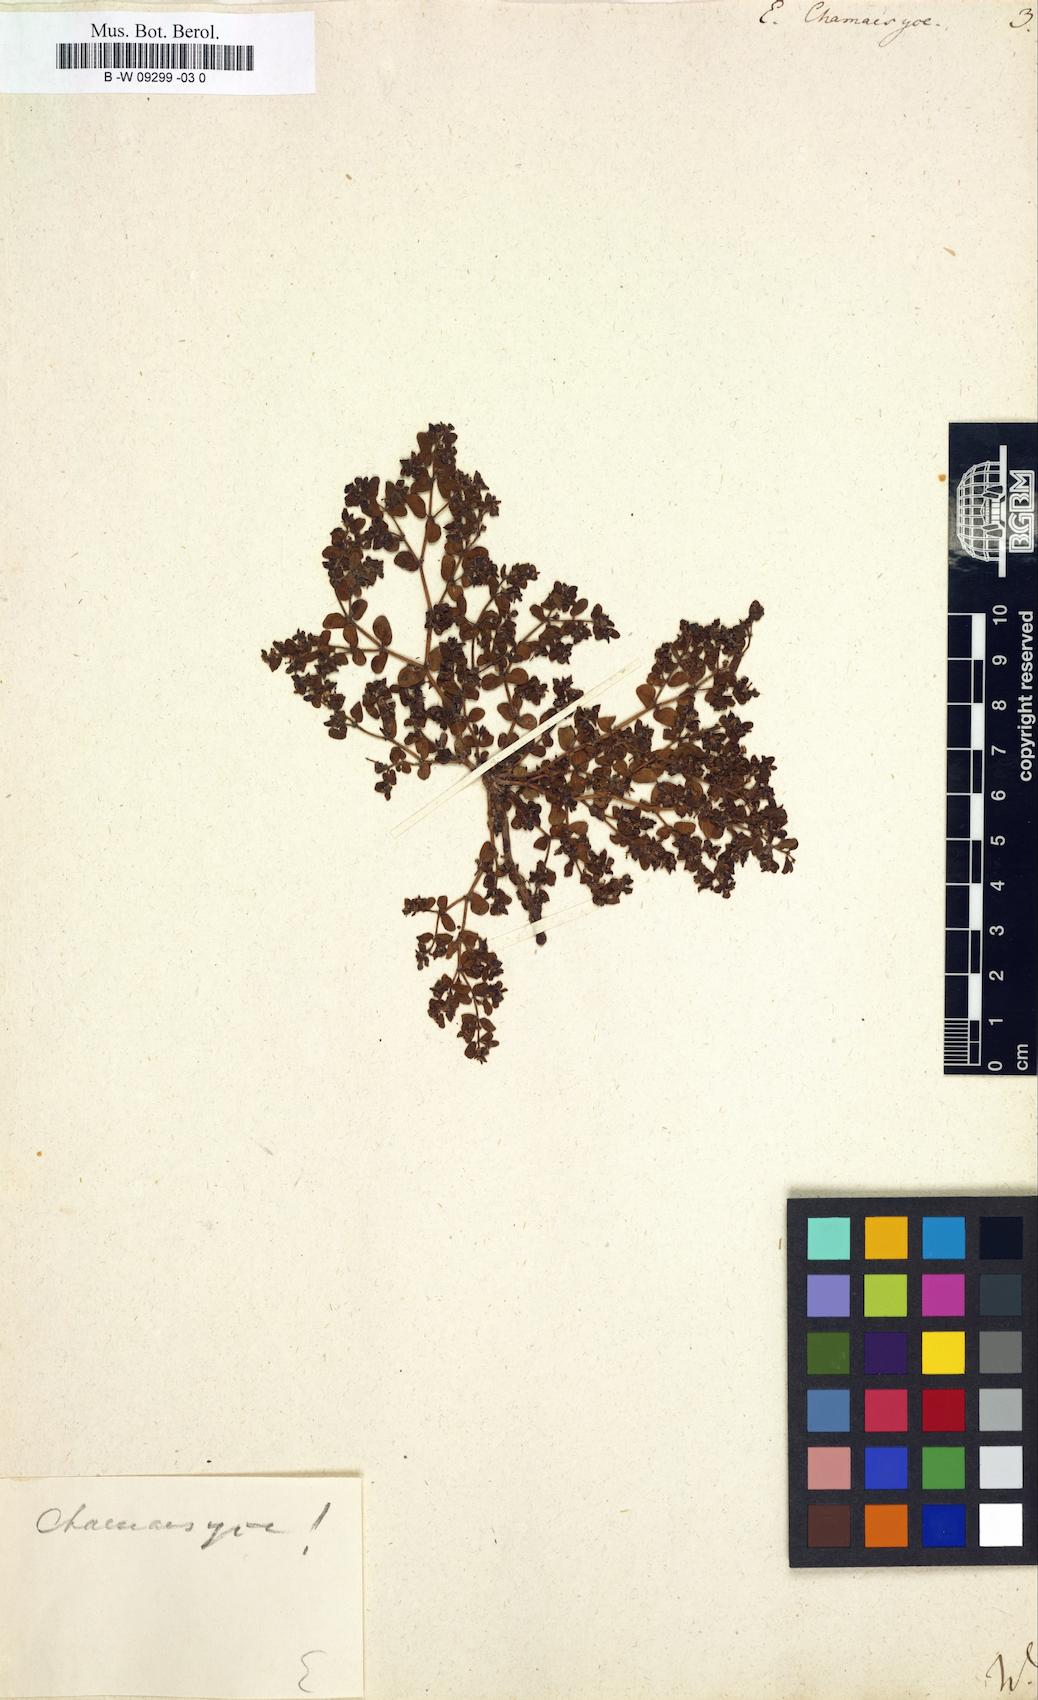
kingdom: Plantae
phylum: Tracheophyta
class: Magnoliopsida
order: Malpighiales
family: Euphorbiaceae
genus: Euphorbia
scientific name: Euphorbia chamaesyce
